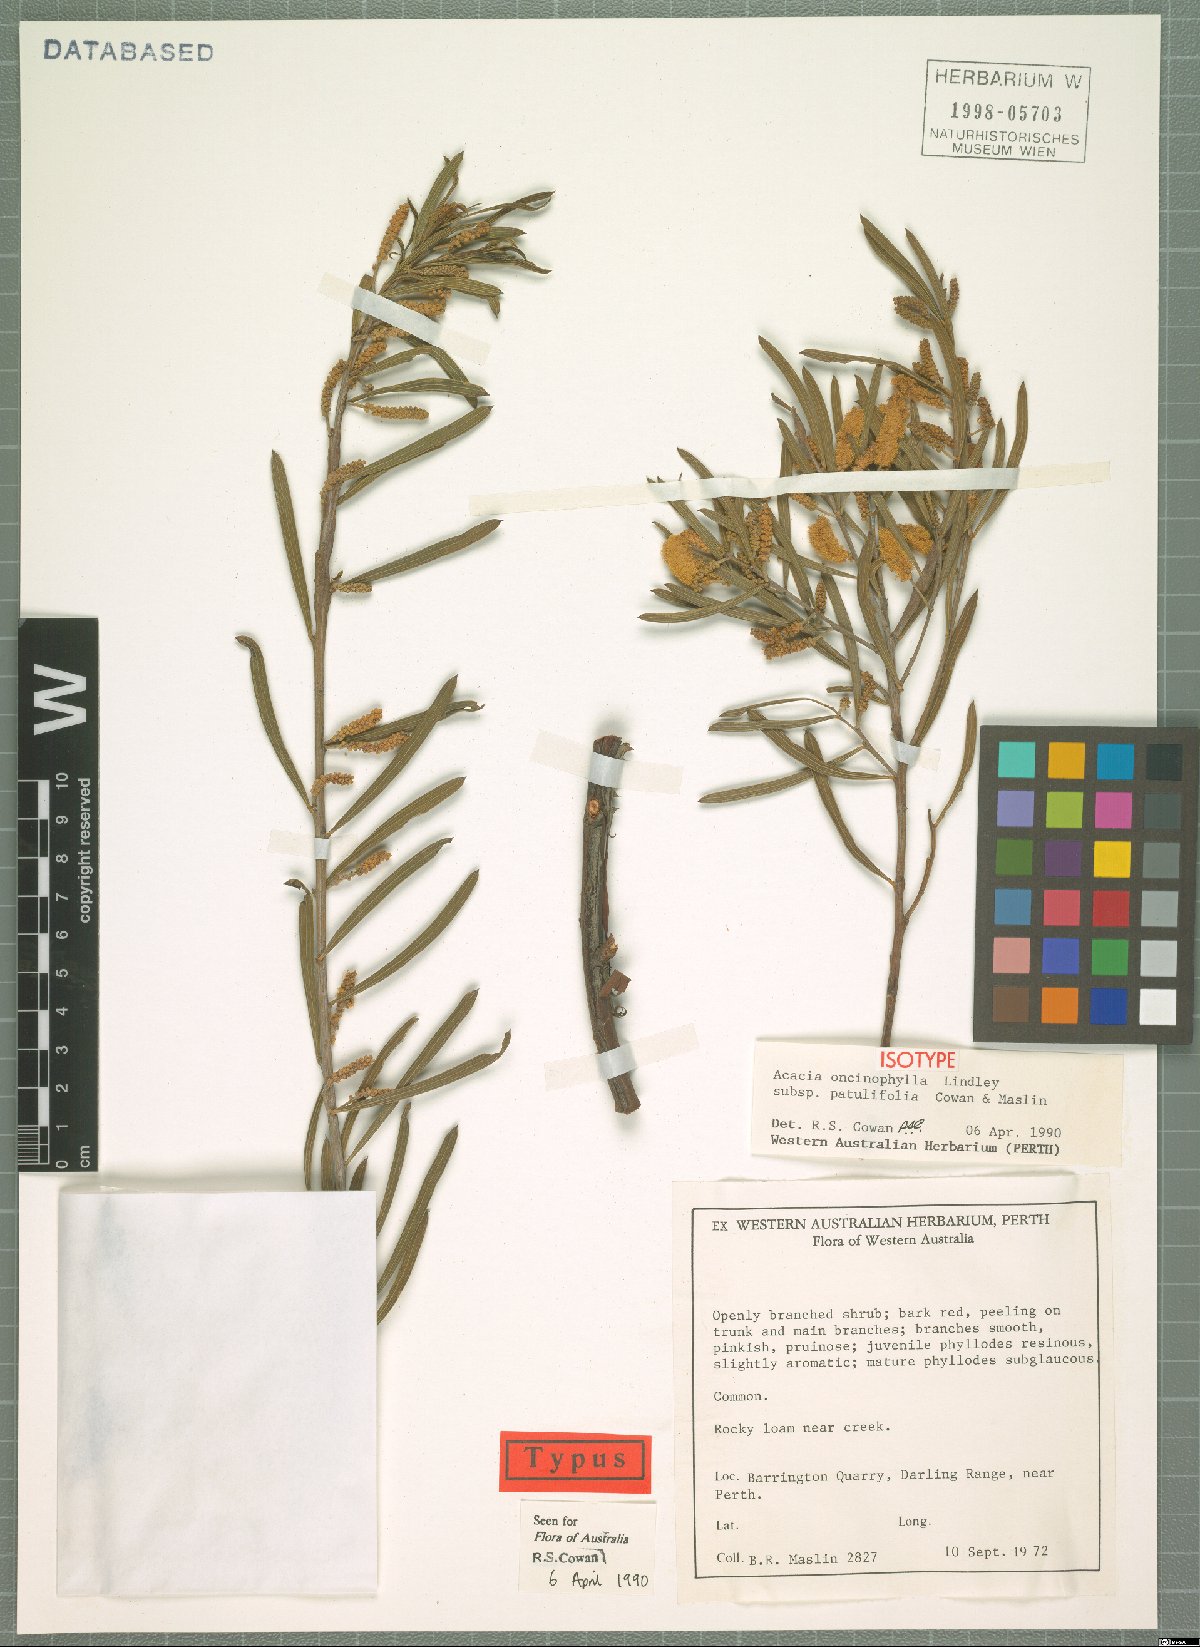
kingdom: Plantae
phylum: Tracheophyta
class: Magnoliopsida
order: Fabales
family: Fabaceae
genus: Acacia
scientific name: Acacia oncinophylla
